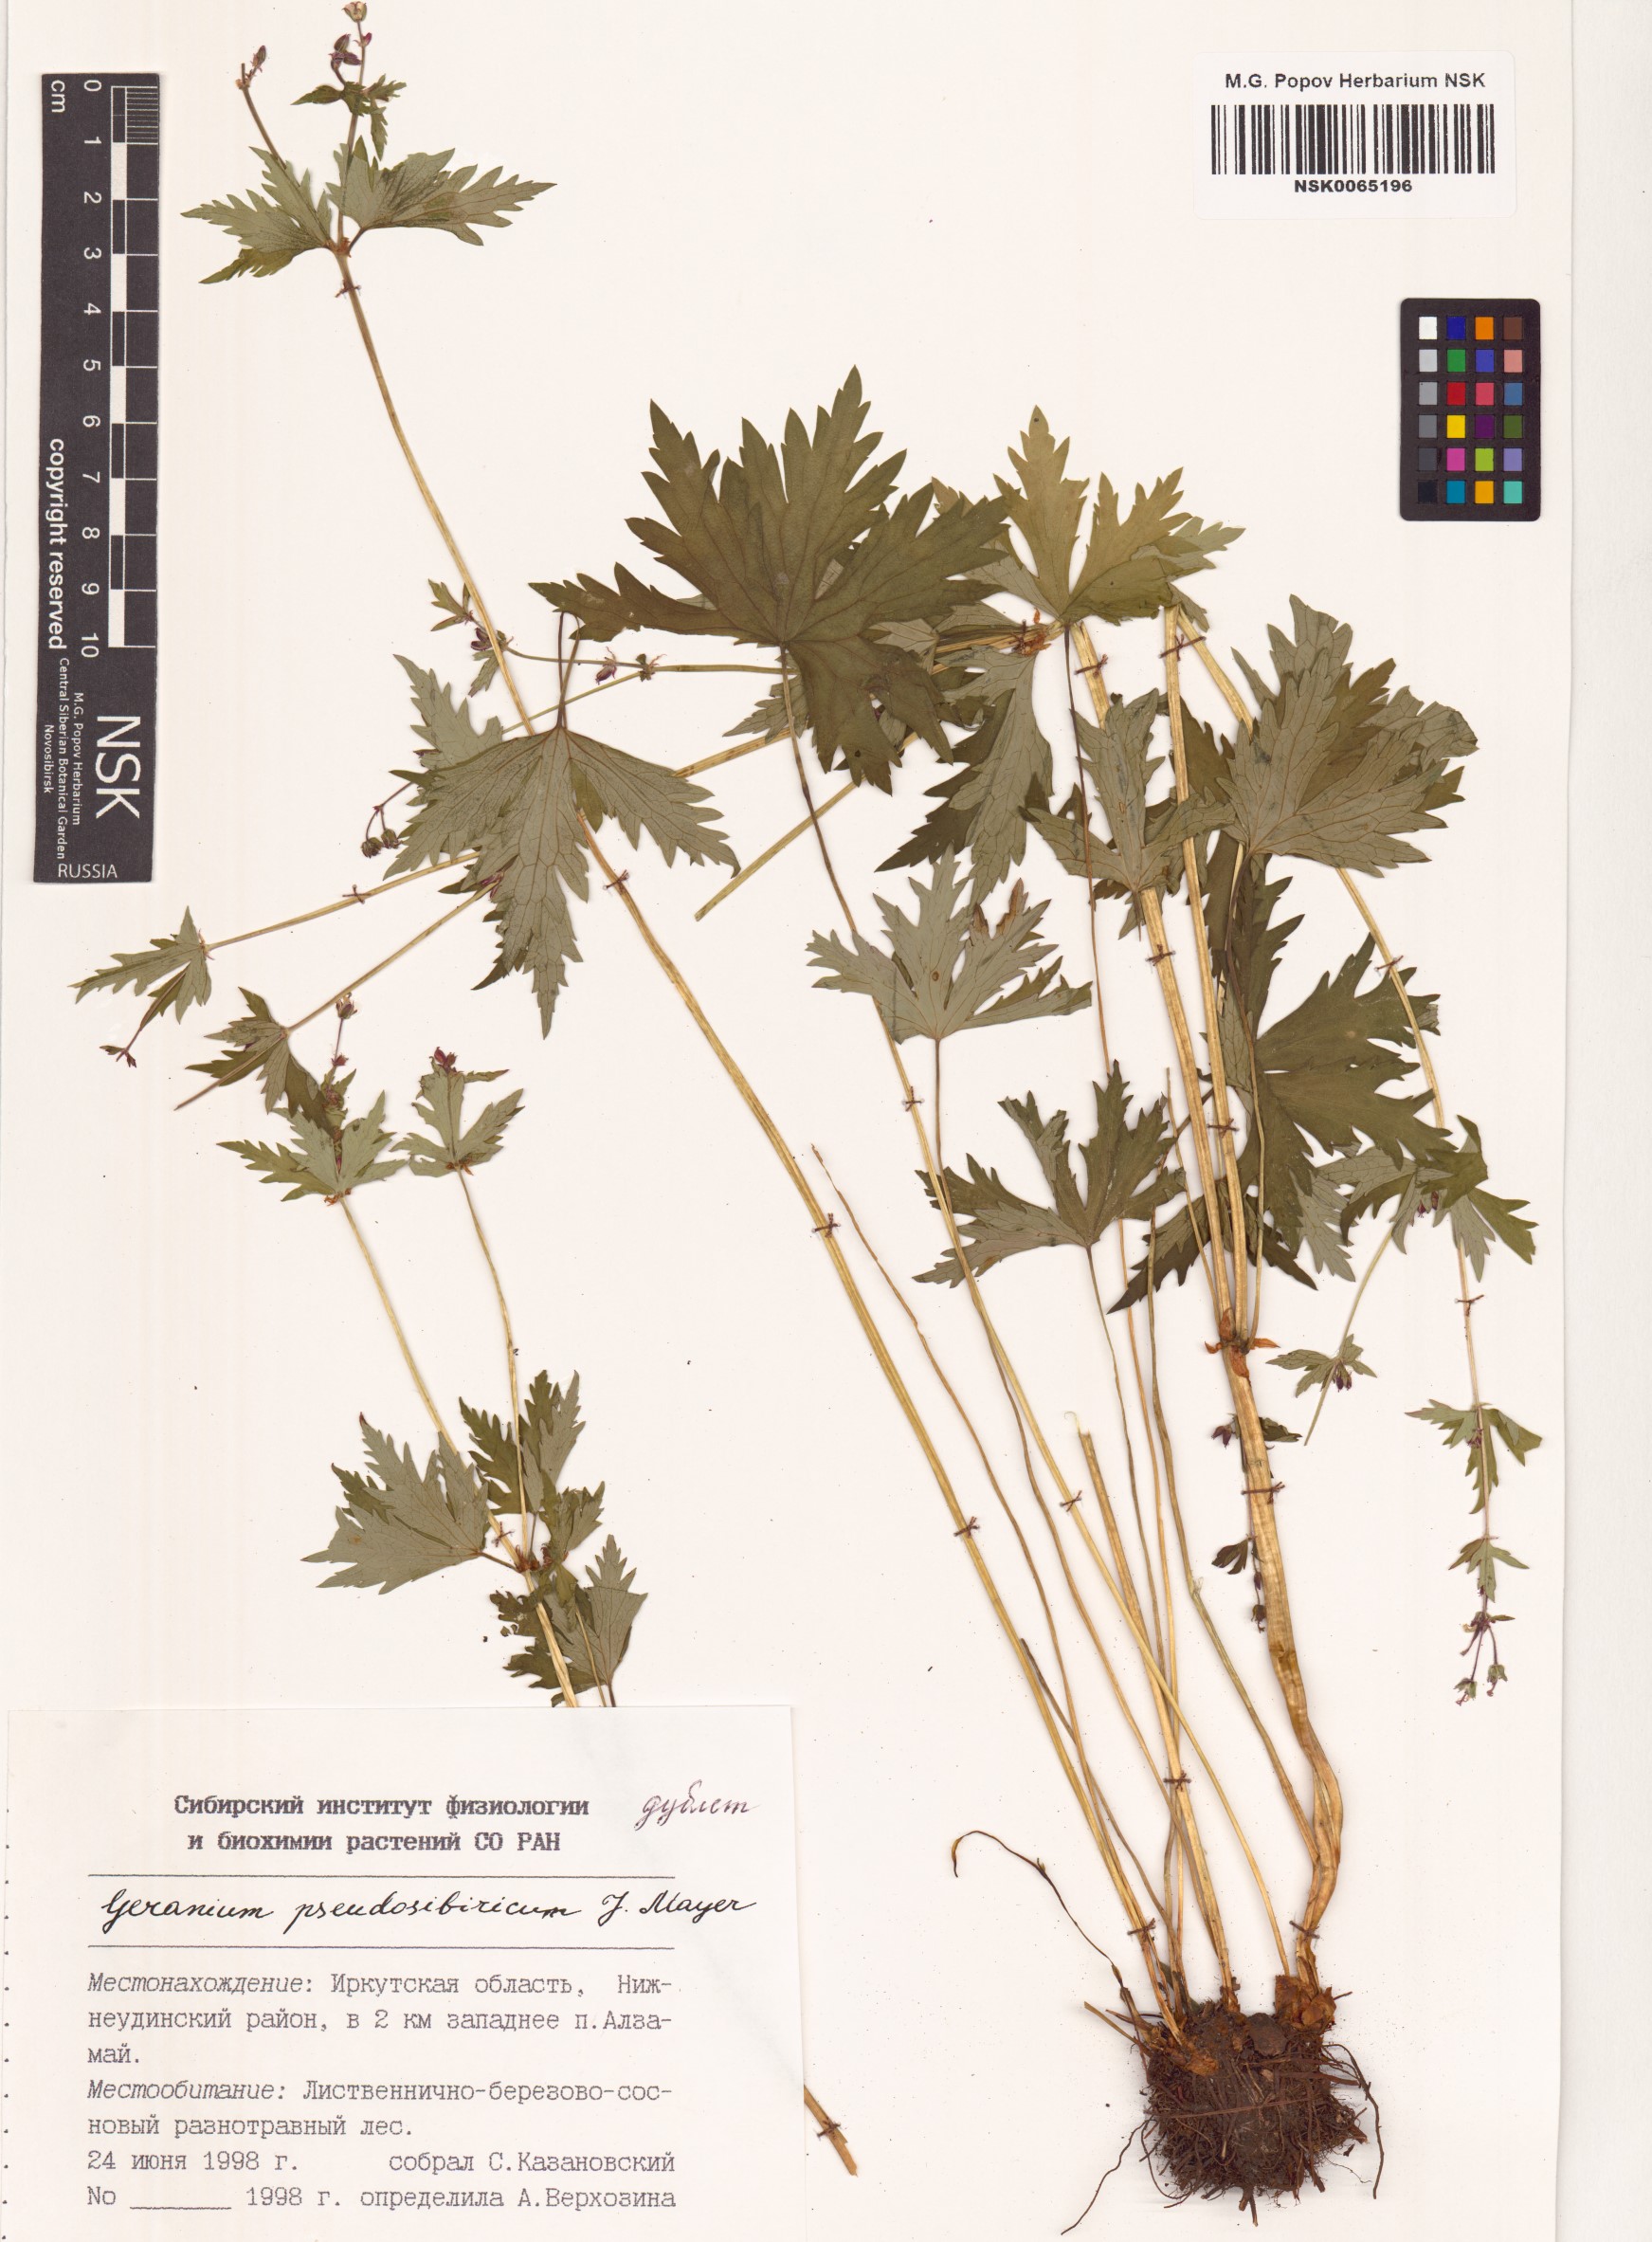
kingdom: Plantae
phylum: Tracheophyta
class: Magnoliopsida
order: Geraniales
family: Geraniaceae
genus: Geranium
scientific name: Geranium pseudosibiricum
